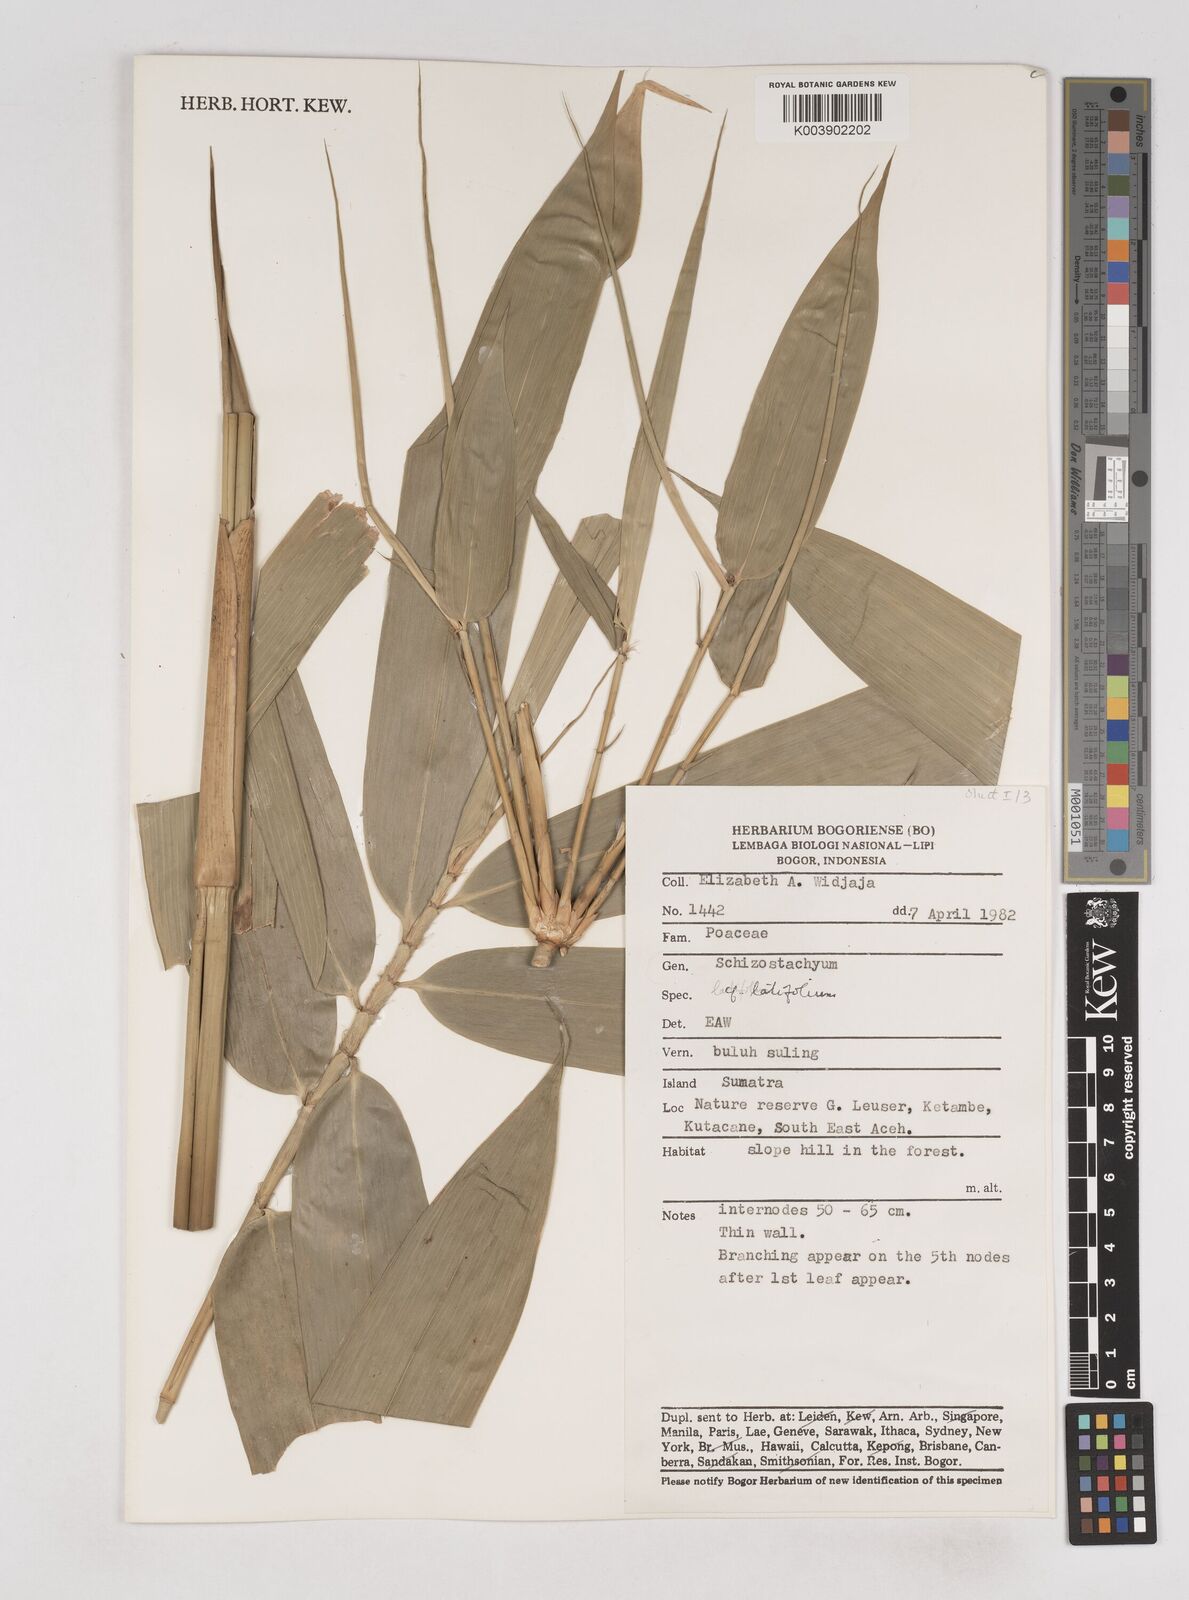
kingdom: Plantae
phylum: Tracheophyta
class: Liliopsida
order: Poales
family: Poaceae
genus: Schizostachyum
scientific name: Schizostachyum latifolium
